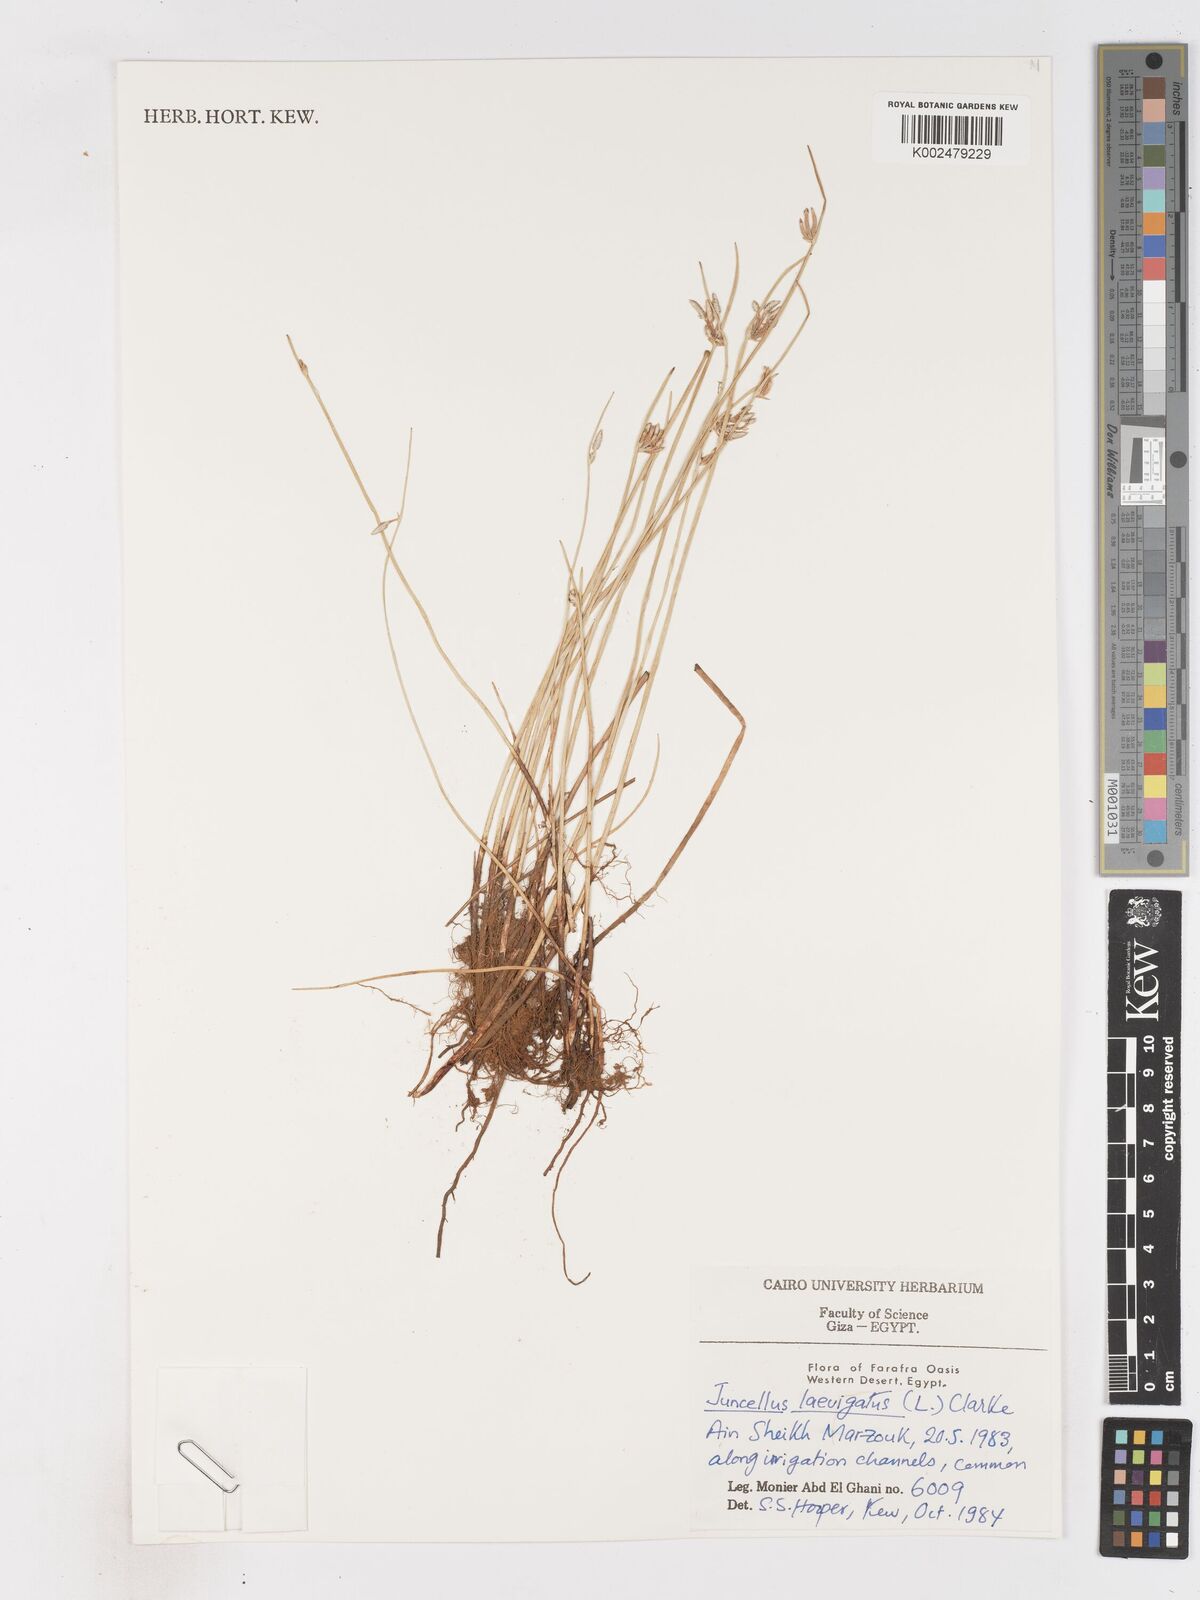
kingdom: Plantae
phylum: Tracheophyta
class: Liliopsida
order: Poales
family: Cyperaceae
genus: Cyperus
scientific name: Cyperus laevigatus
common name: Smooth flat sedge
